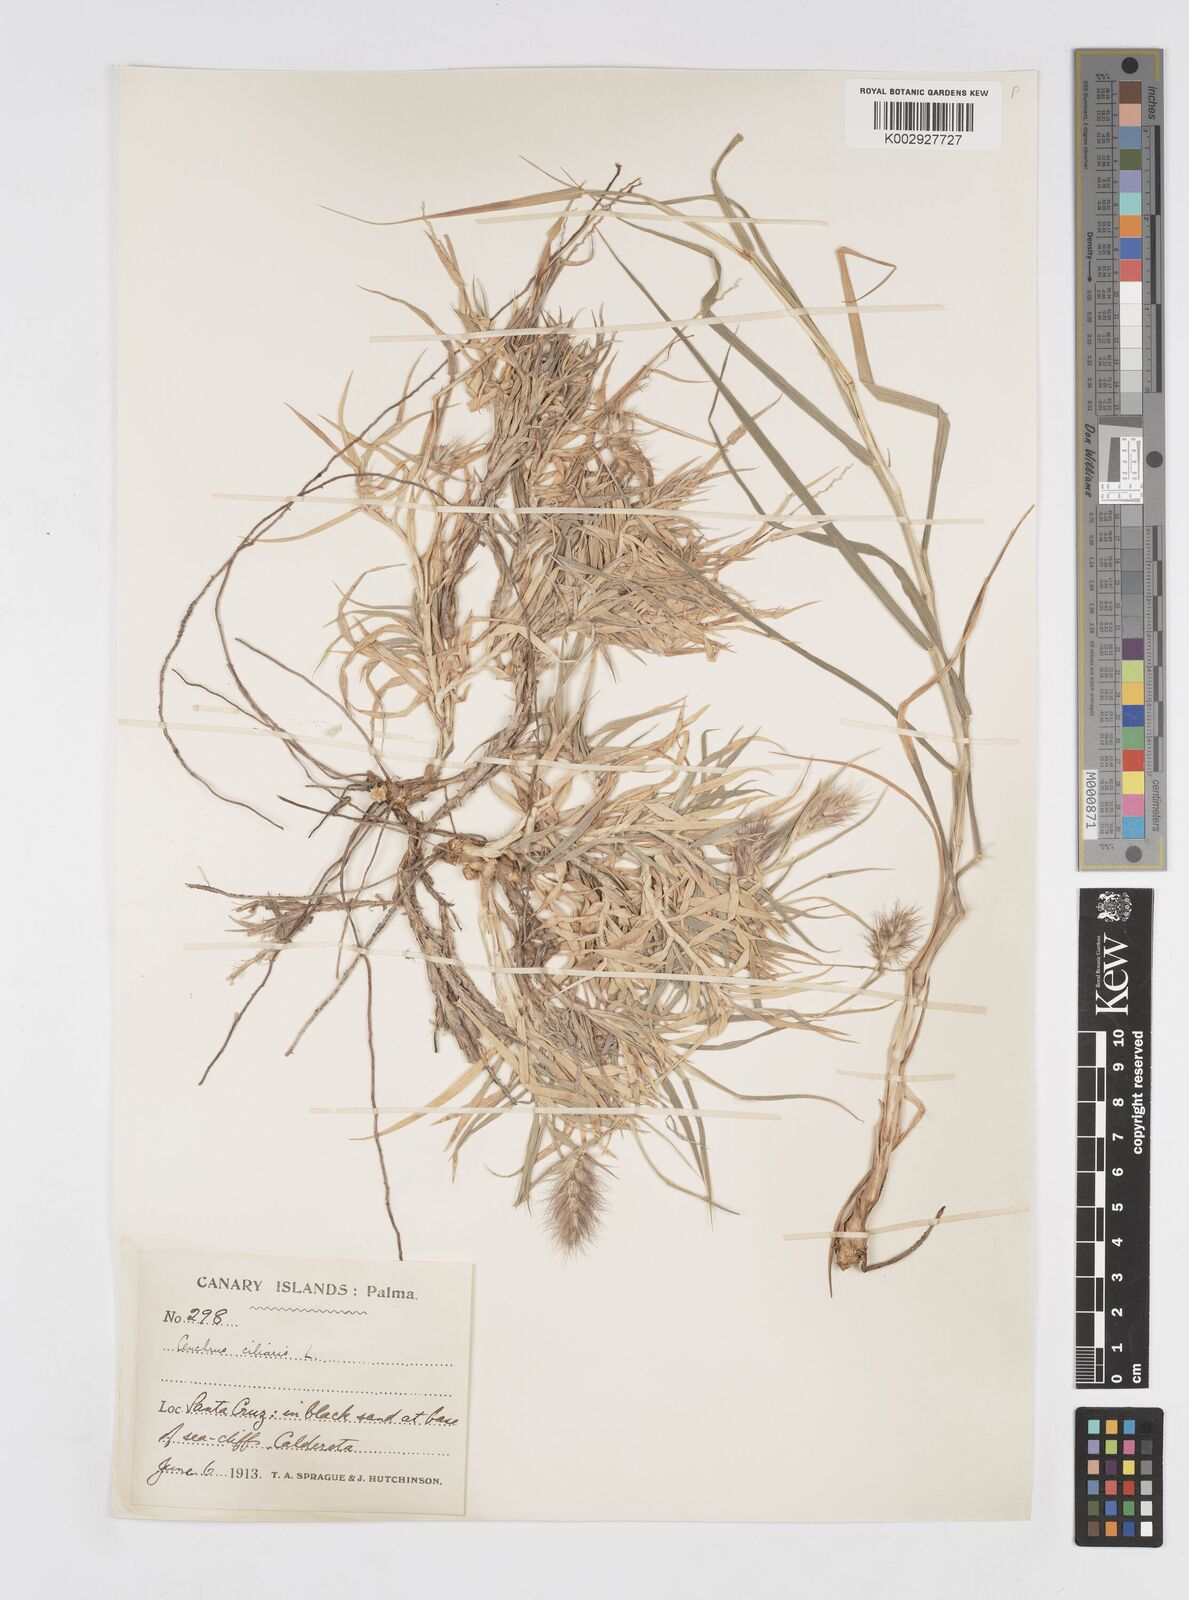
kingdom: Plantae
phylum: Tracheophyta
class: Liliopsida
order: Poales
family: Poaceae
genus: Cenchrus
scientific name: Cenchrus ciliaris
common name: Buffelgrass
